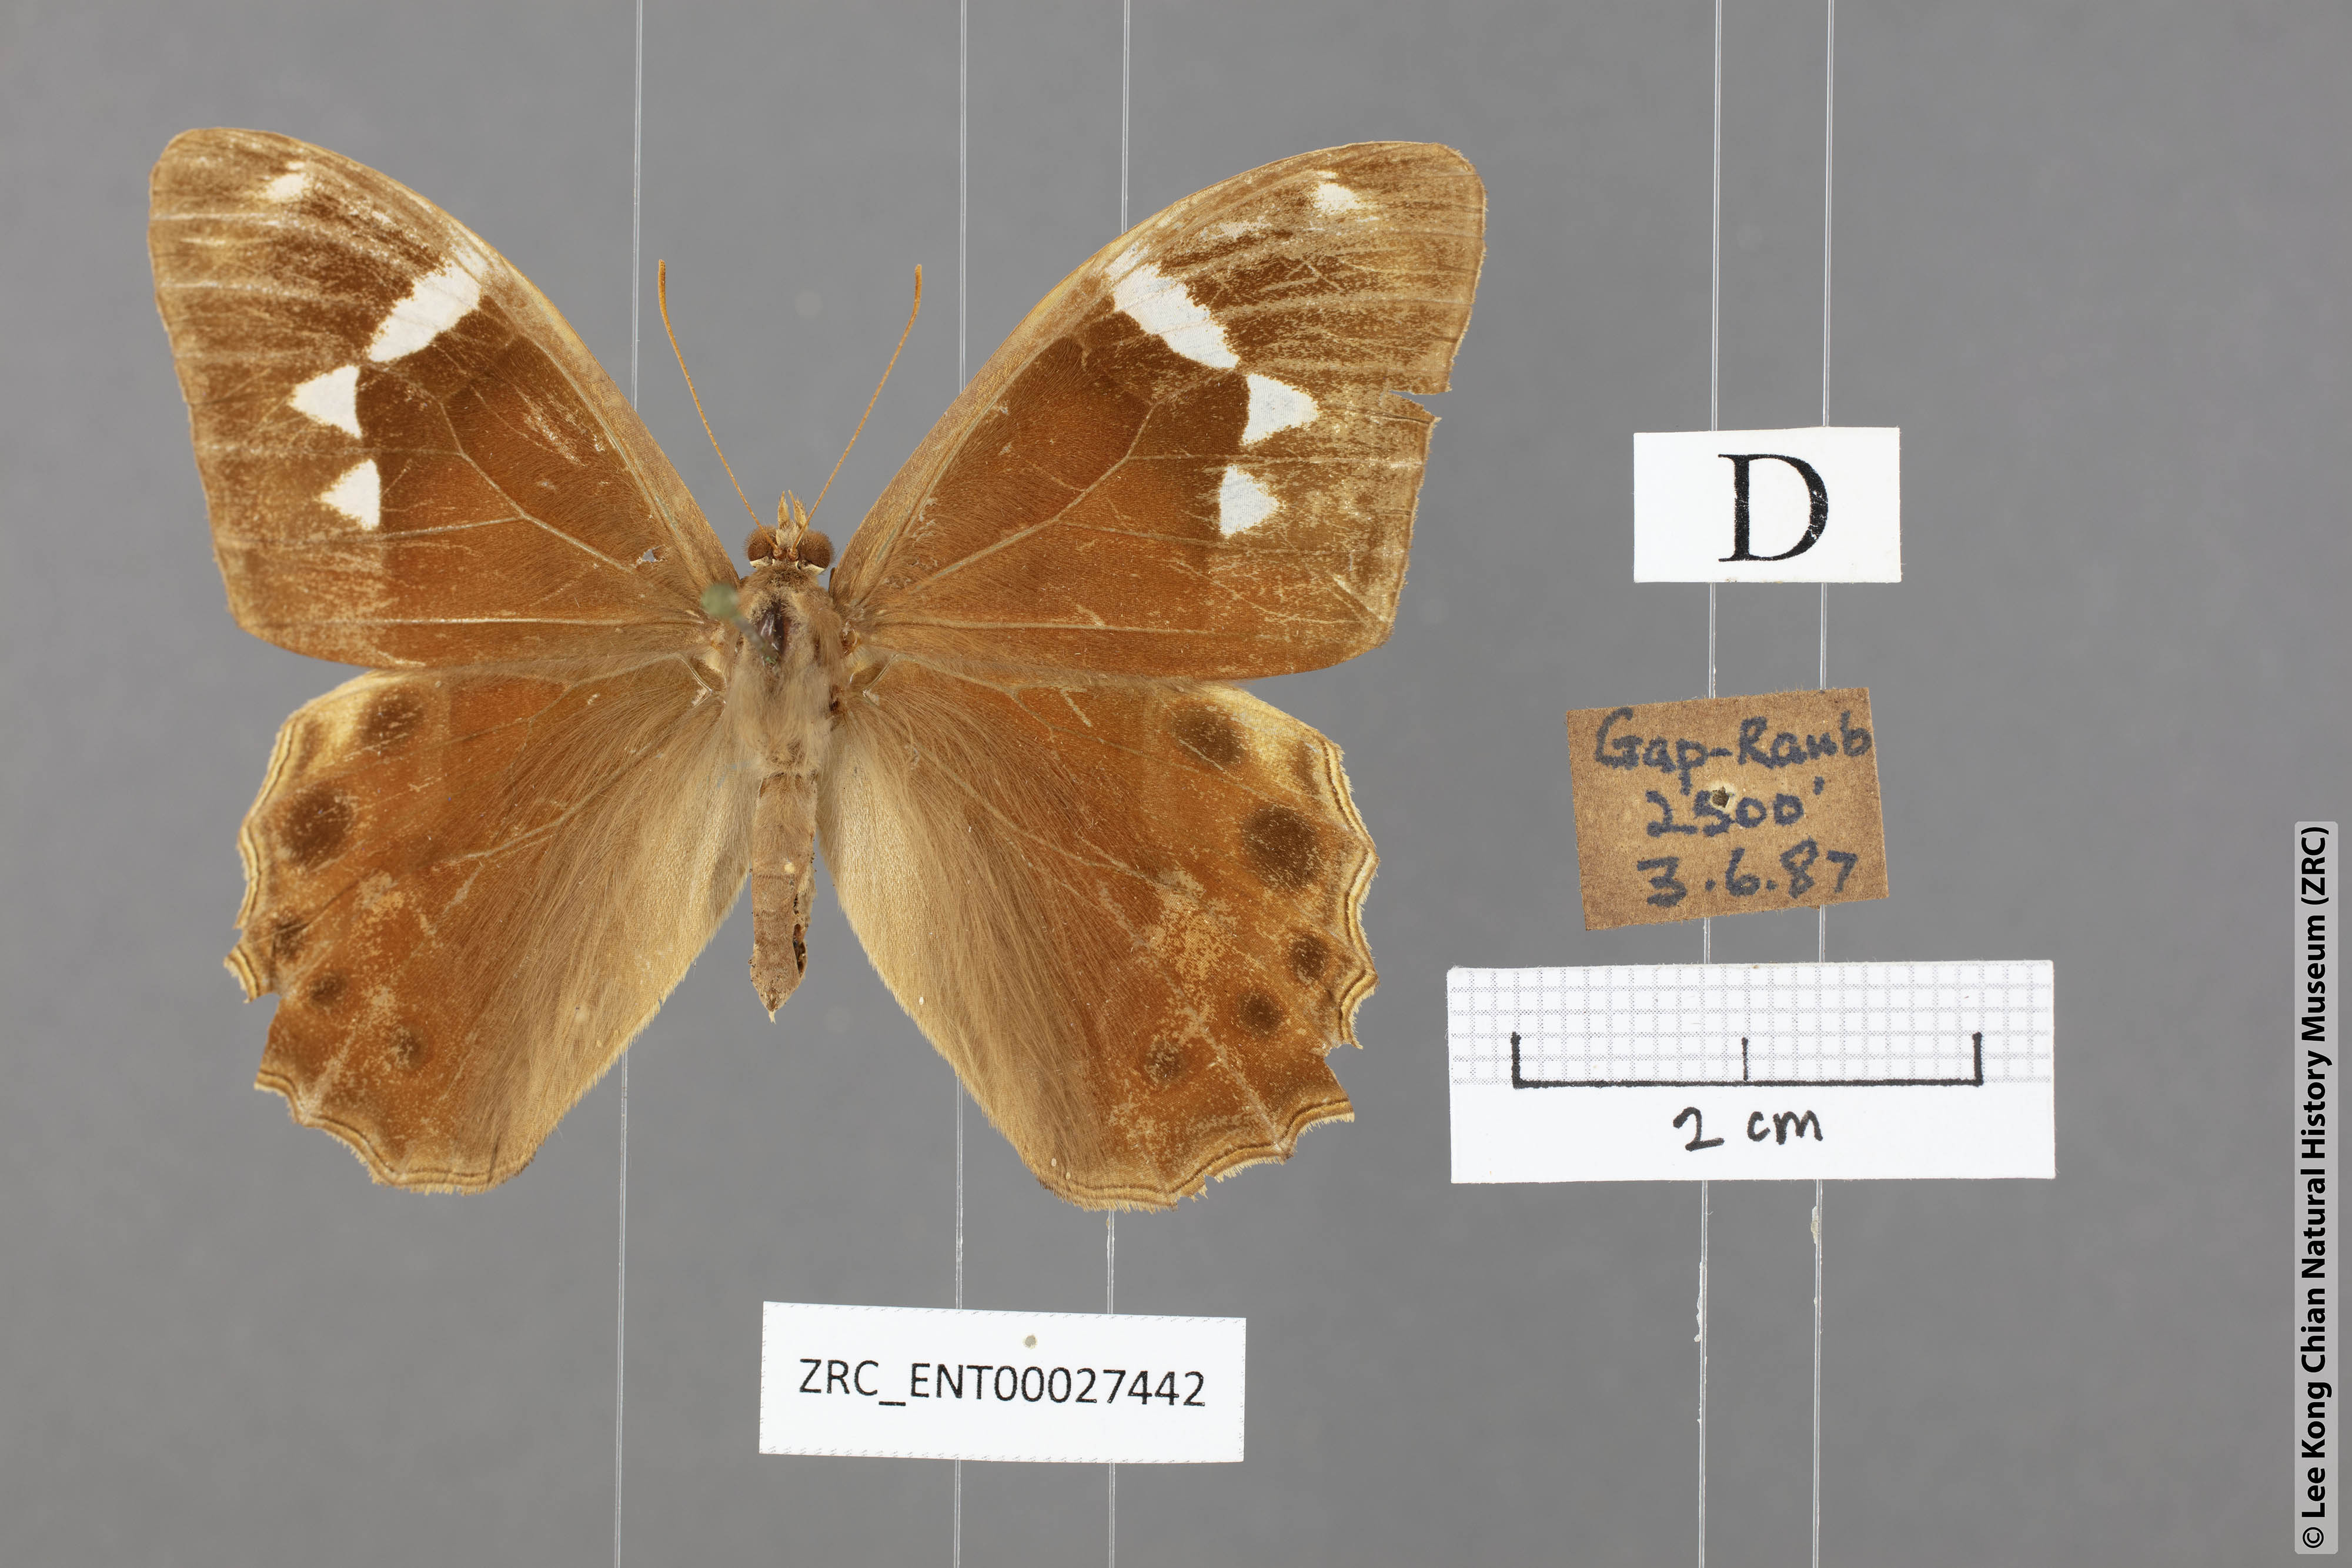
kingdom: Animalia
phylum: Arthropoda
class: Insecta
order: Lepidoptera
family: Nymphalidae
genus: Lethe
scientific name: Lethe mekara
